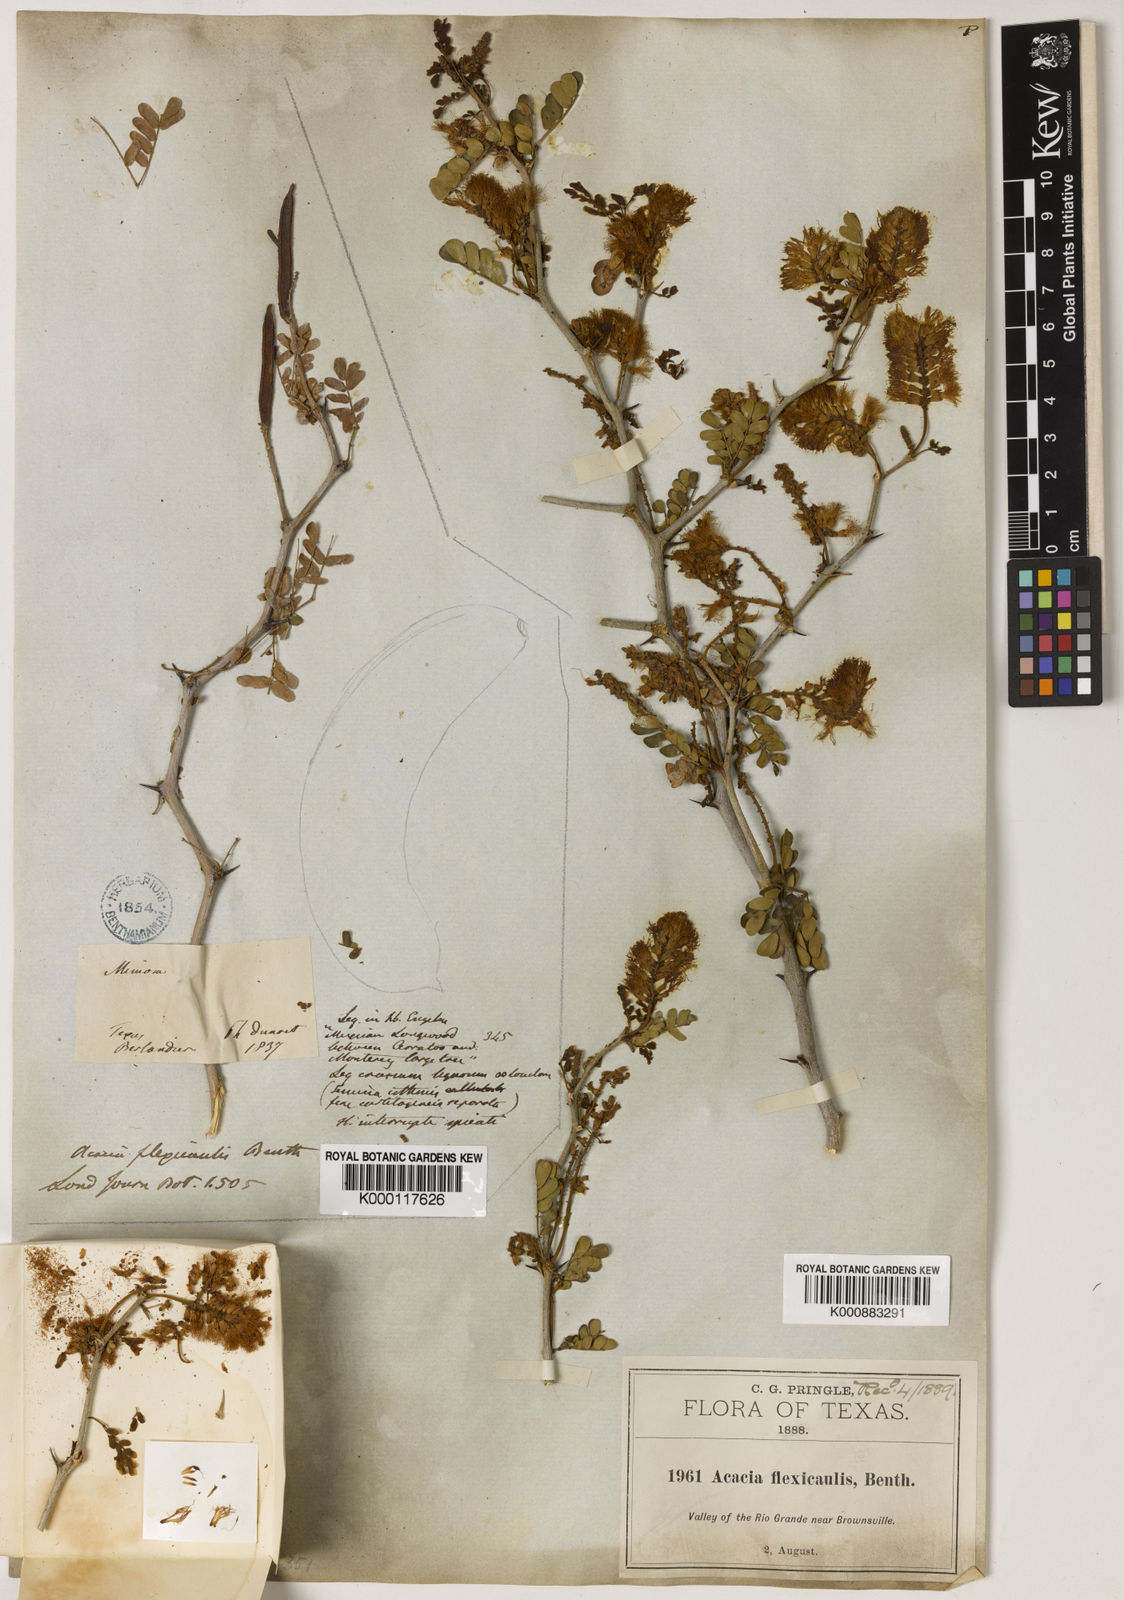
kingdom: Plantae
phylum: Tracheophyta
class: Magnoliopsida
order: Fabales
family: Fabaceae
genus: Chloroleucon
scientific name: Chloroleucon
